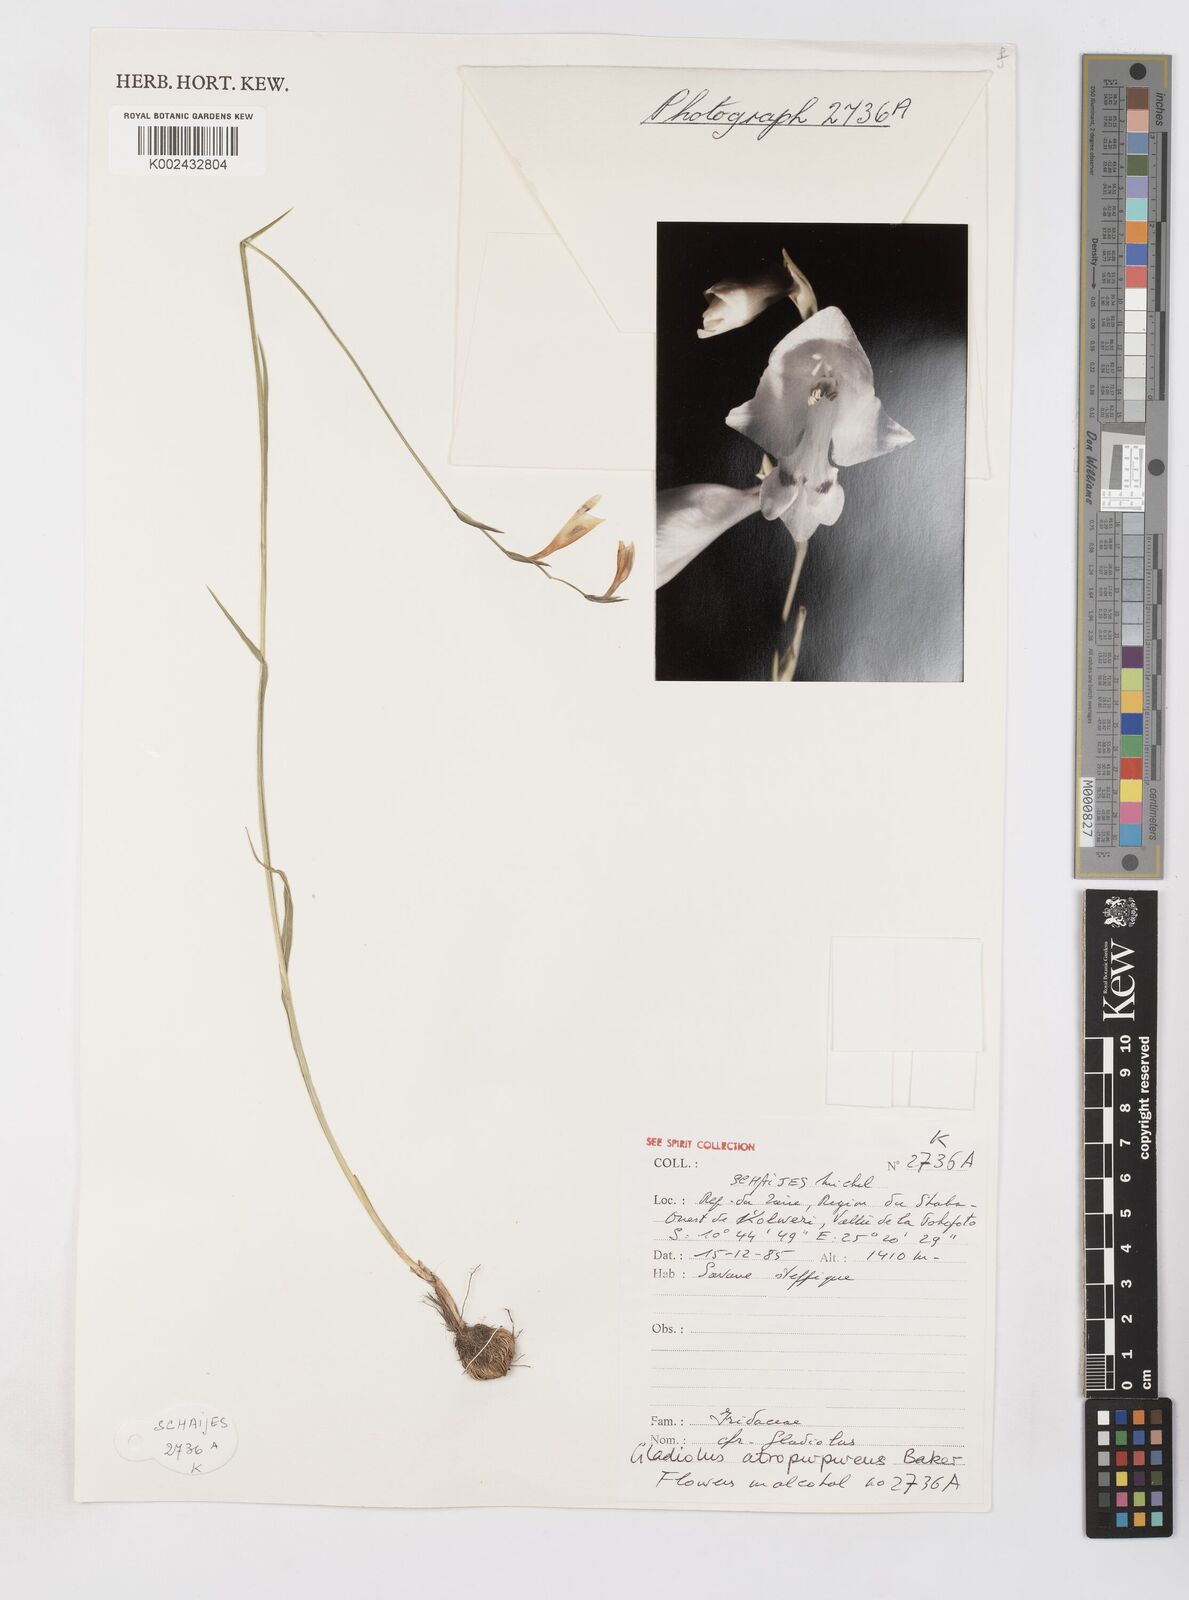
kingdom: Plantae
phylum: Tracheophyta
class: Liliopsida
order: Asparagales
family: Iridaceae
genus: Gladiolus
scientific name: Gladiolus atropurpureus
